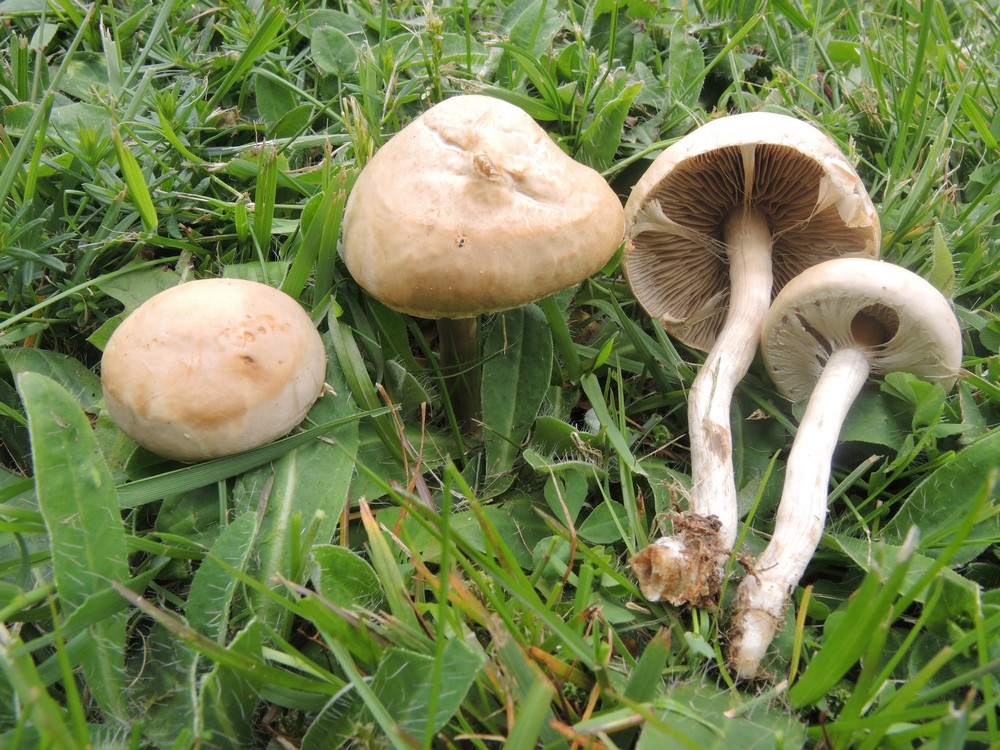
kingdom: Fungi
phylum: Basidiomycota
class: Agaricomycetes
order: Agaricales
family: Strophariaceae
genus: Agrocybe
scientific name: Agrocybe praecox
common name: tidlig agerhat
